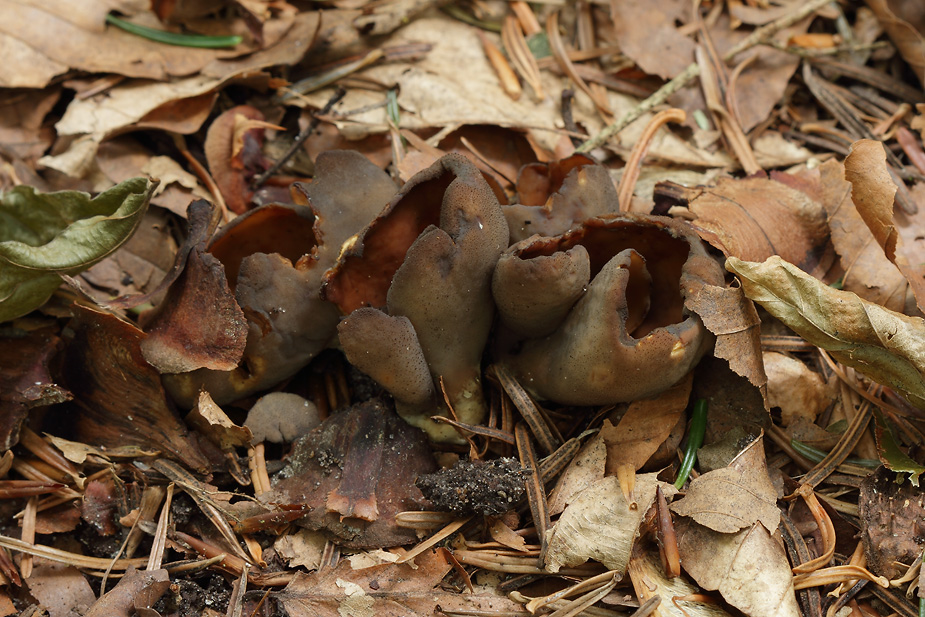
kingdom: Fungi
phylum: Ascomycota
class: Pezizomycetes
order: Pezizales
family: Otideaceae
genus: Otidea
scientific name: Otidea bufonia
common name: brun ørebæger
